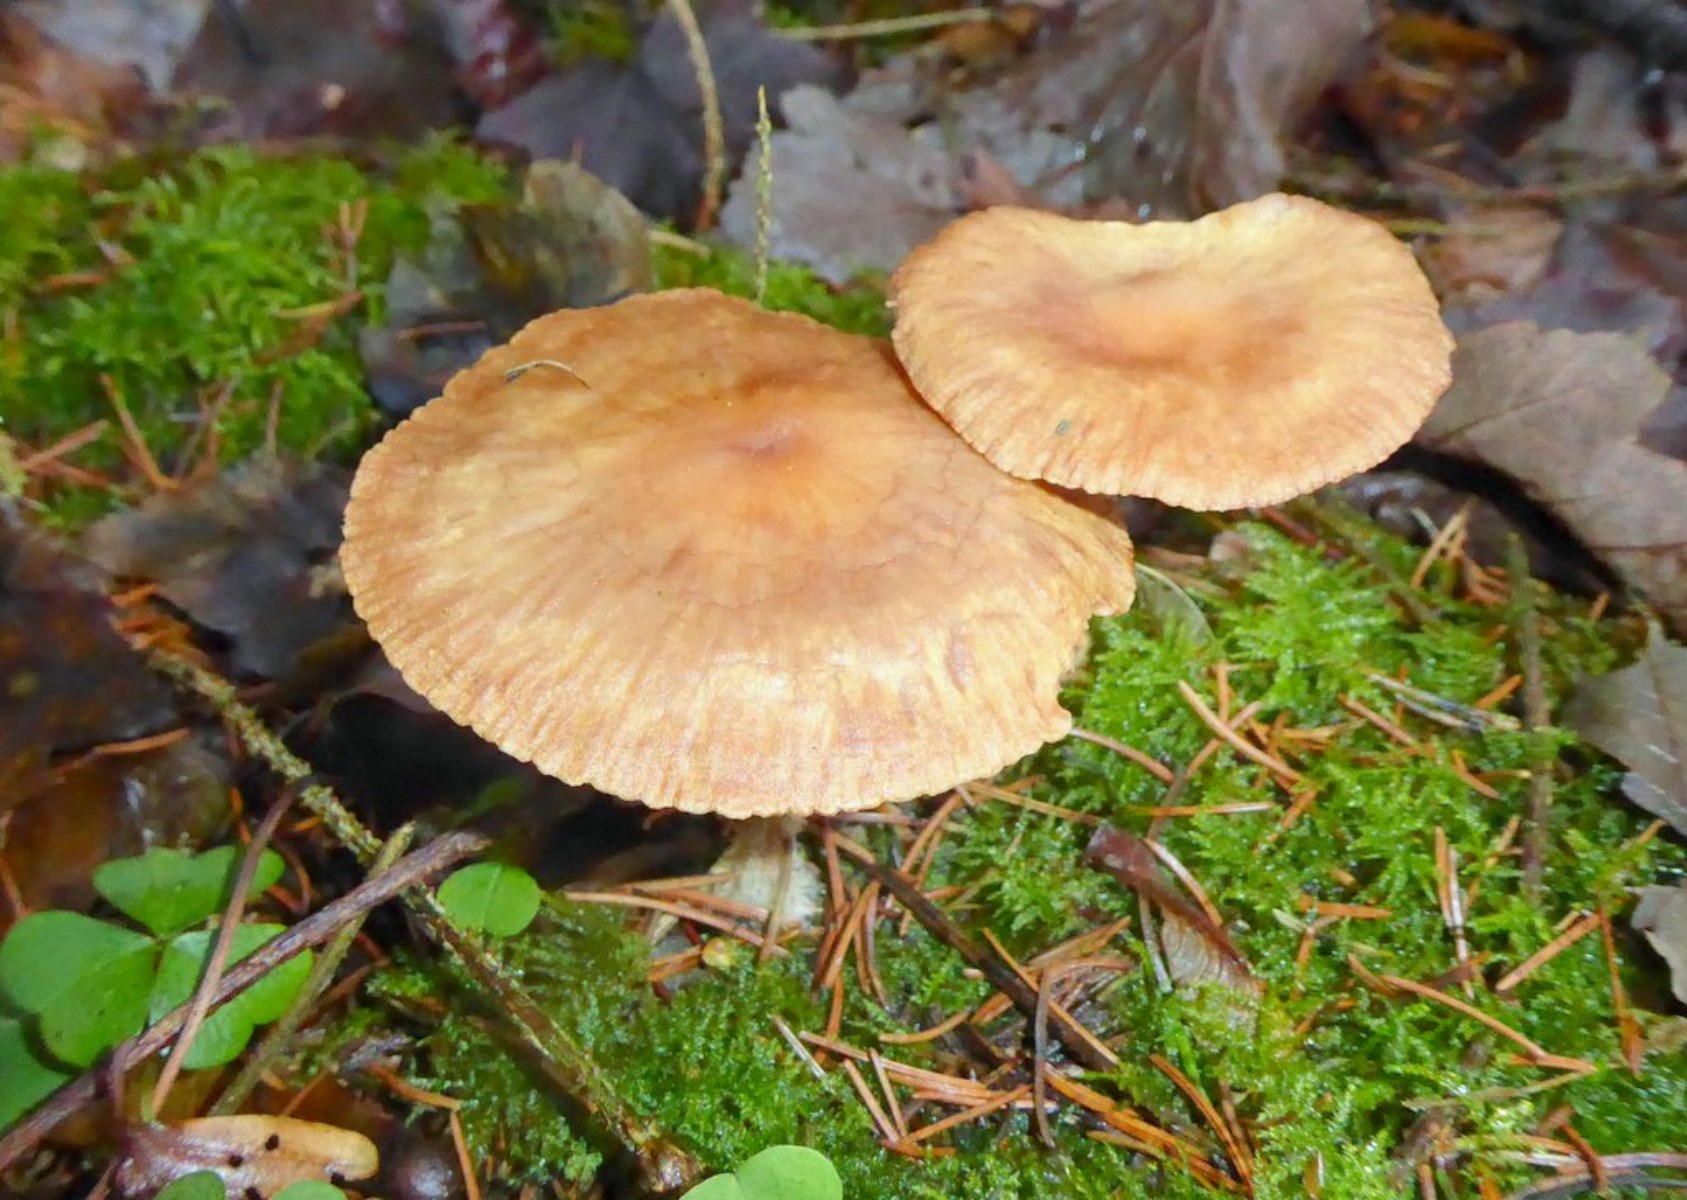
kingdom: Fungi
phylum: Basidiomycota
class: Agaricomycetes
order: Agaricales
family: Omphalotaceae
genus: Collybiopsis
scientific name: Collybiopsis peronata
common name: bestøvlet fladhat
